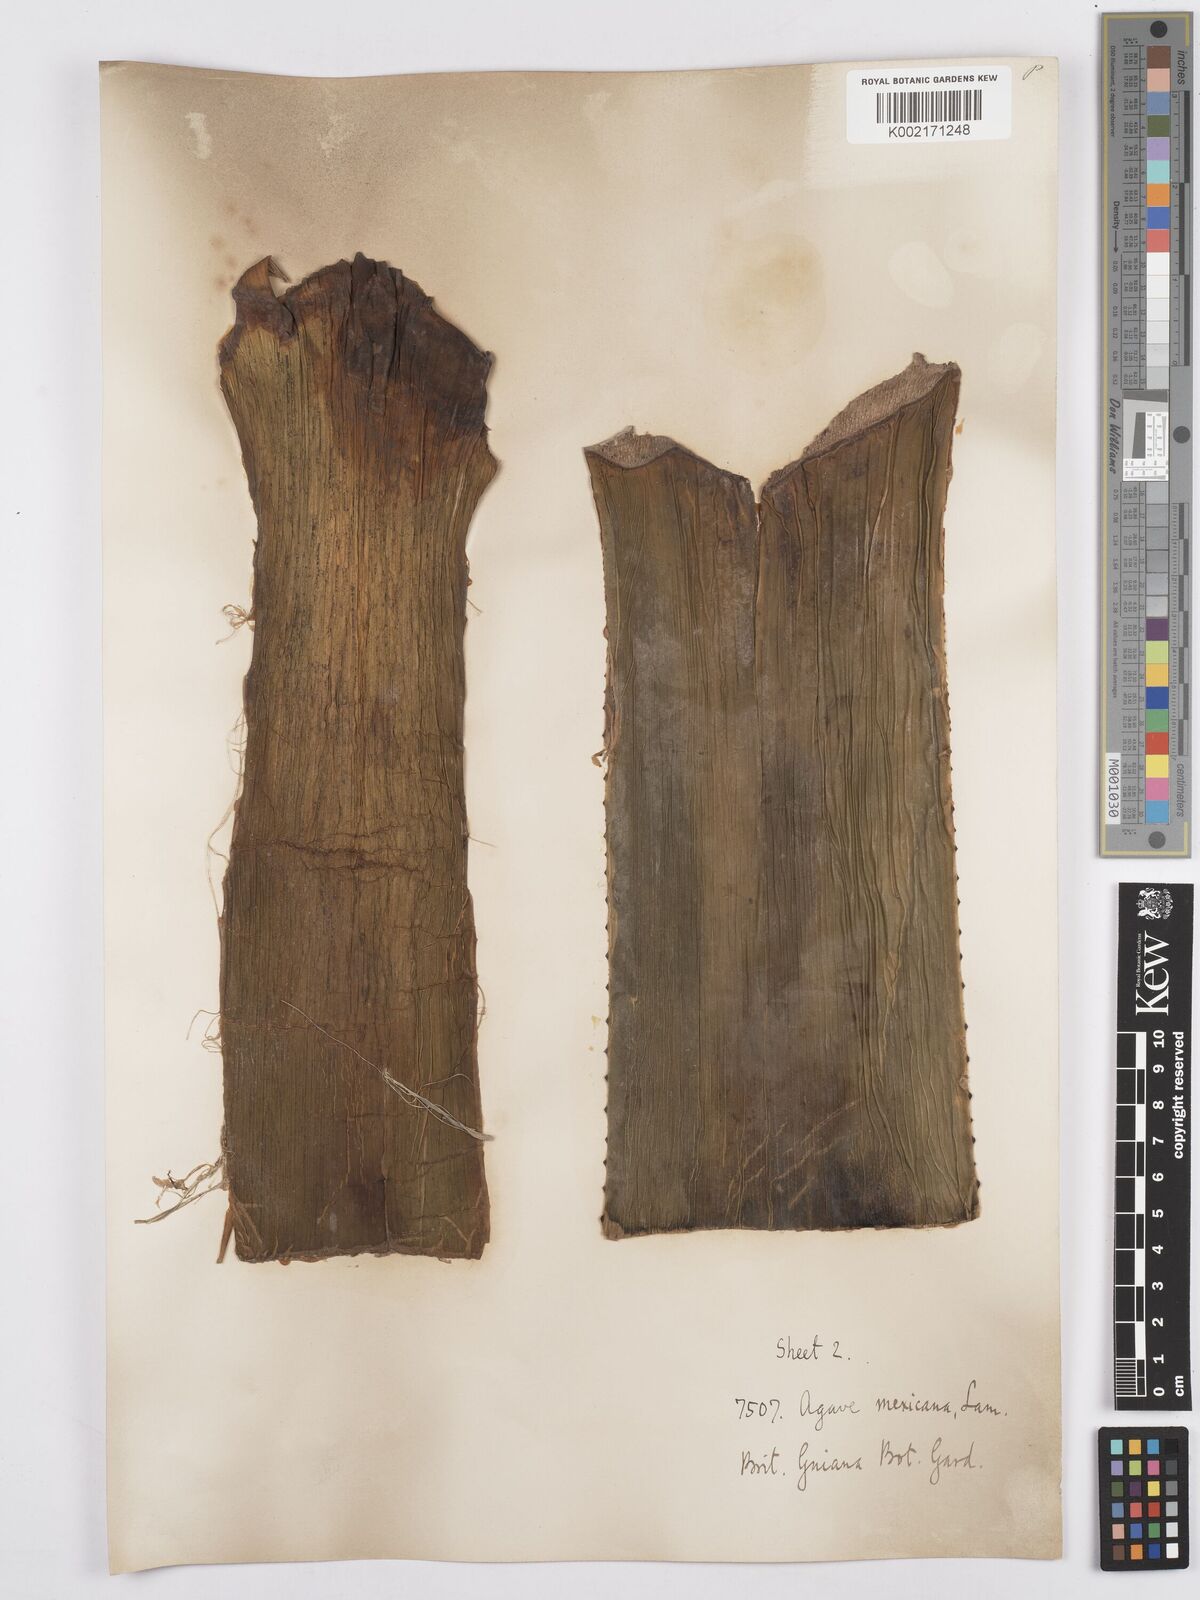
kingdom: Plantae
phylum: Tracheophyta
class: Liliopsida
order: Asparagales
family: Asparagaceae
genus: Agave
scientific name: Agave americana
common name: Centuryplant
